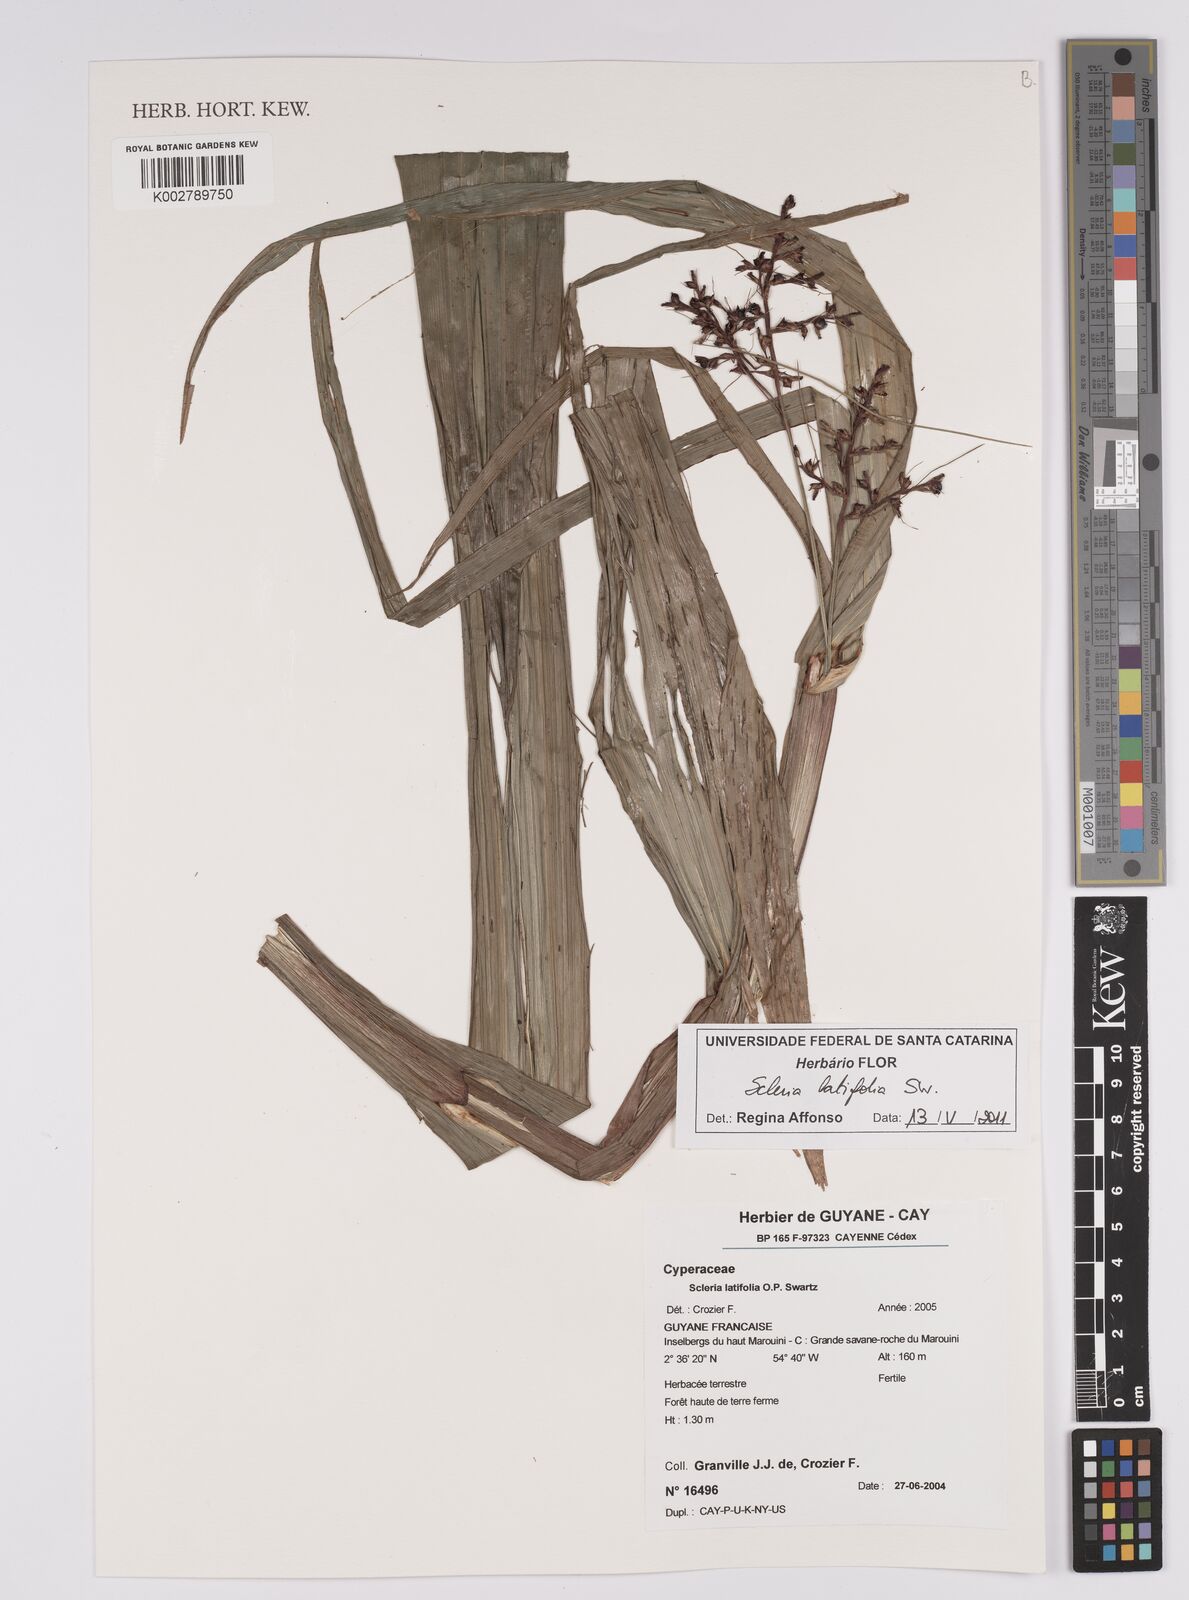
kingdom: Plantae
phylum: Tracheophyta
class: Liliopsida
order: Poales
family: Cyperaceae
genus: Scleria
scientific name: Scleria latifolia
